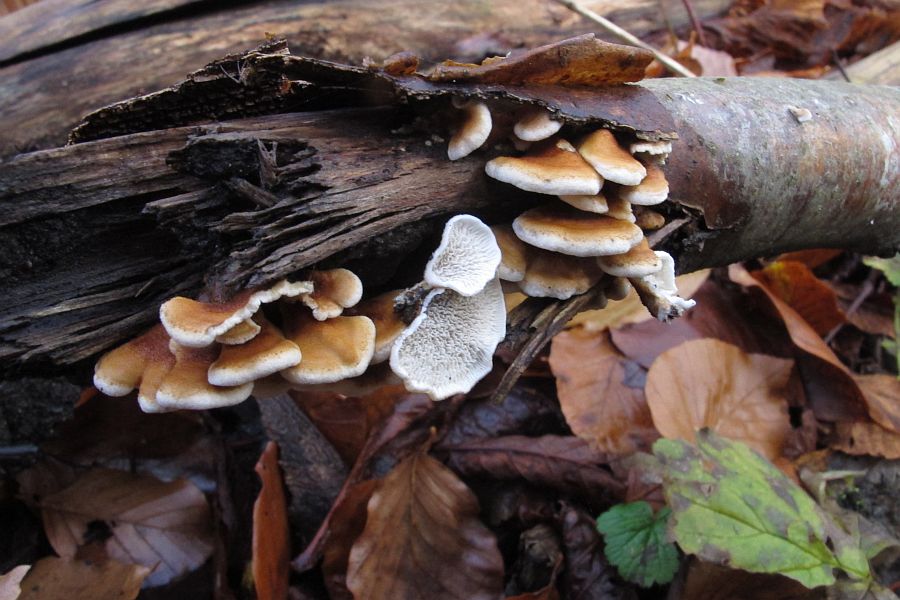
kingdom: Fungi
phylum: Basidiomycota
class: Agaricomycetes
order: Amylocorticiales
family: Amylocorticiaceae
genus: Plicaturopsis
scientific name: Plicaturopsis crispa
